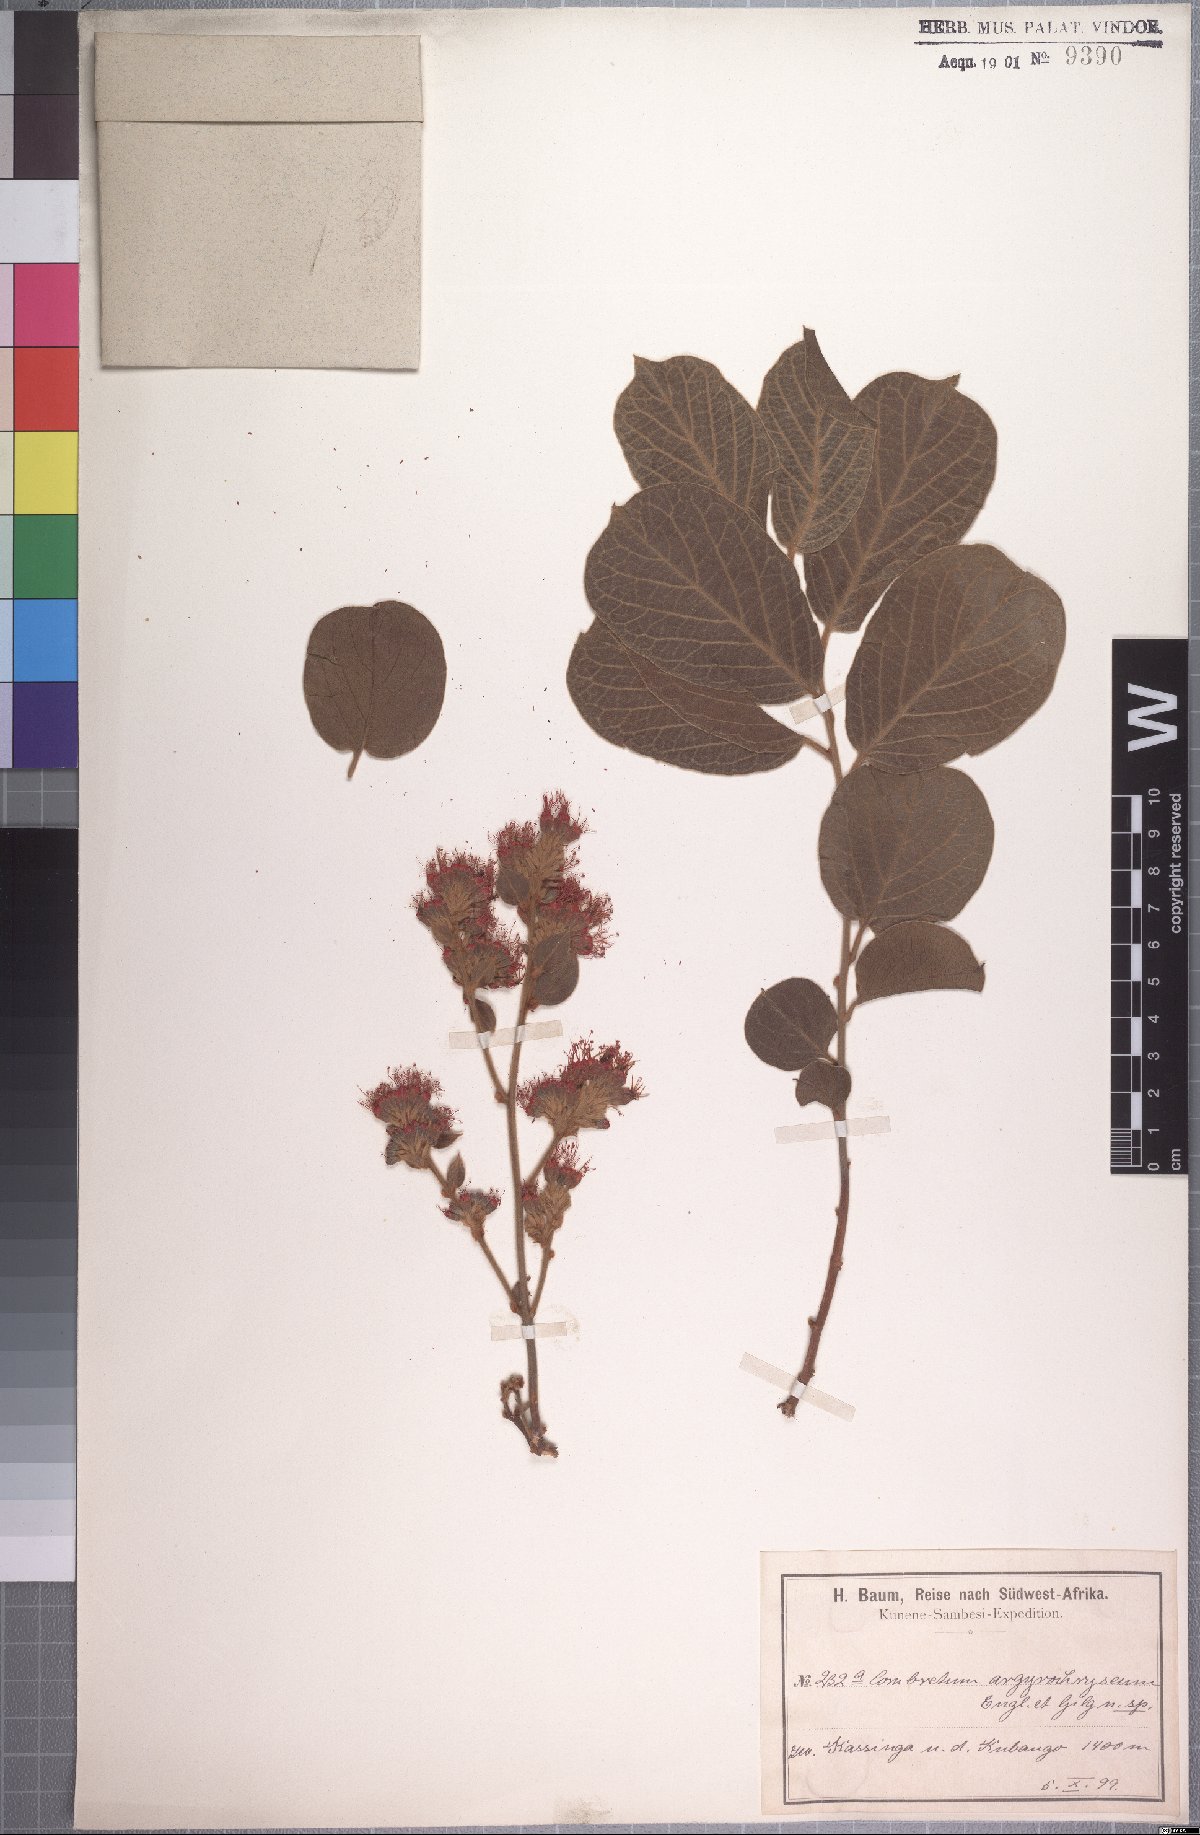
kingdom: Plantae
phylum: Tracheophyta
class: Magnoliopsida
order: Myrtales
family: Combretaceae
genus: Combretum
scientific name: Combretum
